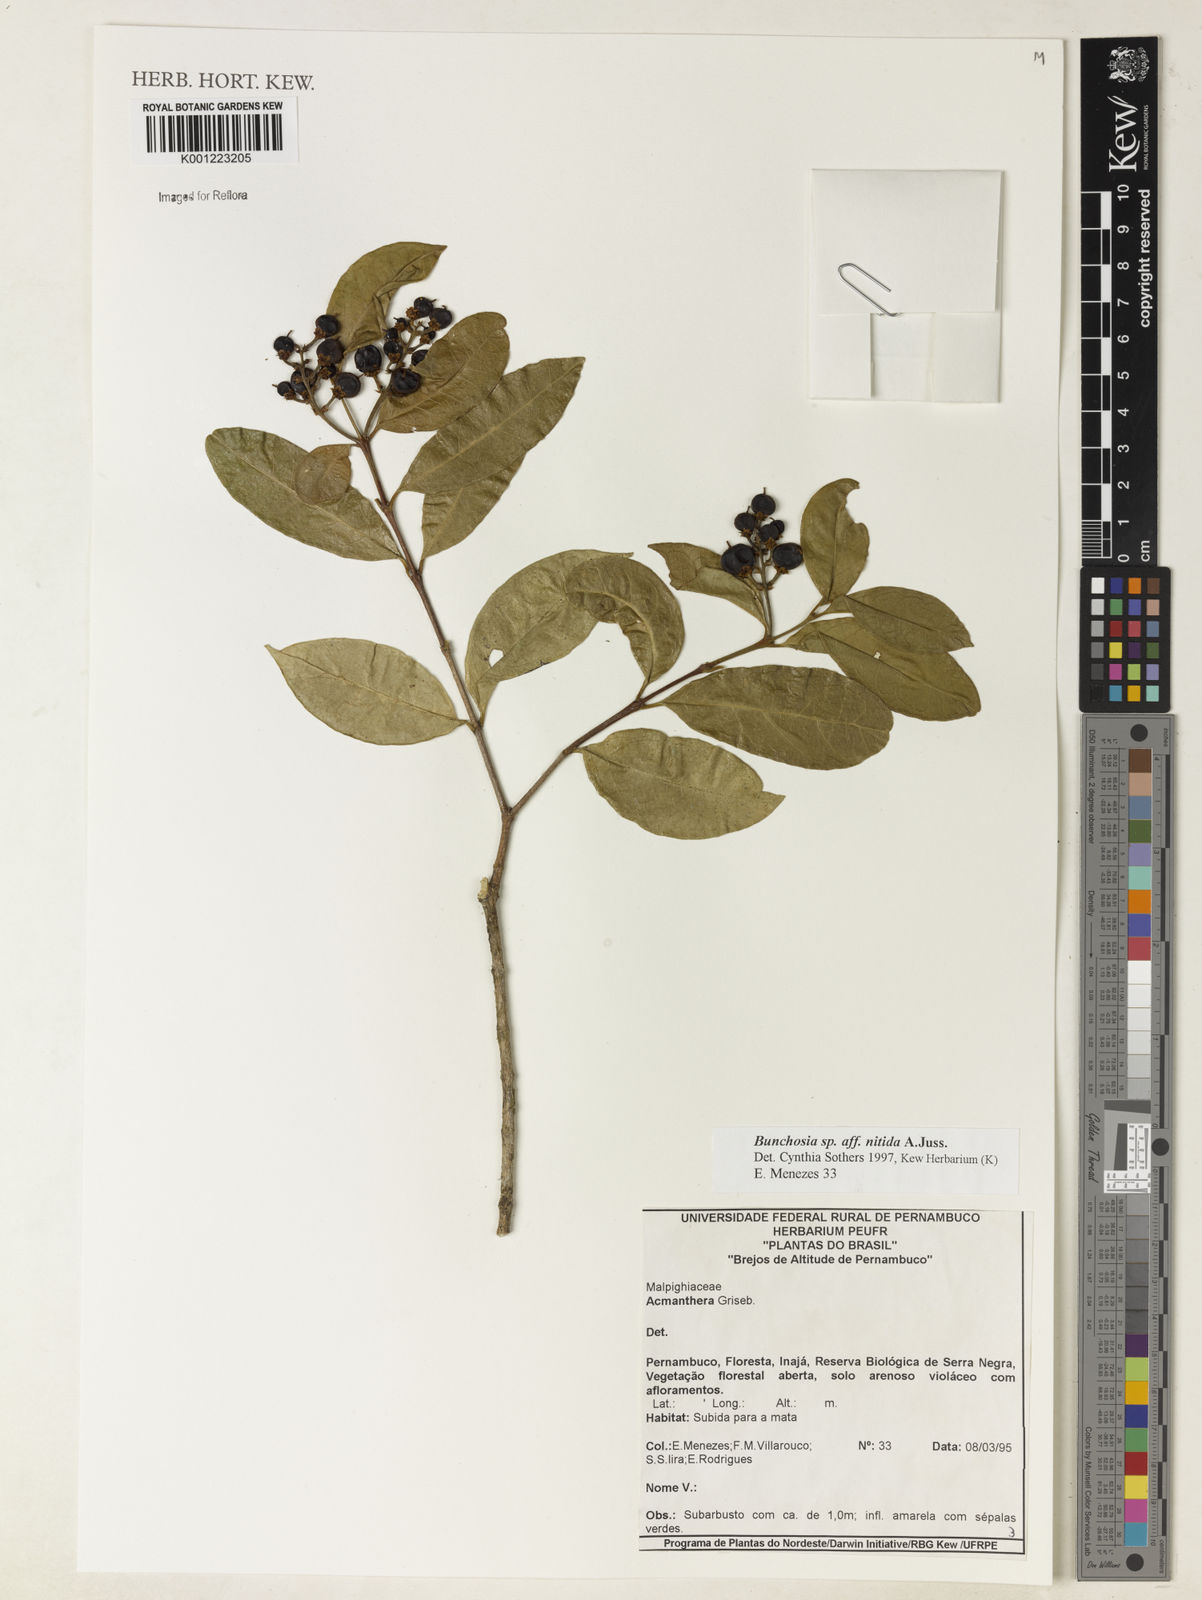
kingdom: Plantae
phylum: Tracheophyta
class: Magnoliopsida
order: Malpighiales
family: Malpighiaceae
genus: Bunchosia
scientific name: Bunchosia
